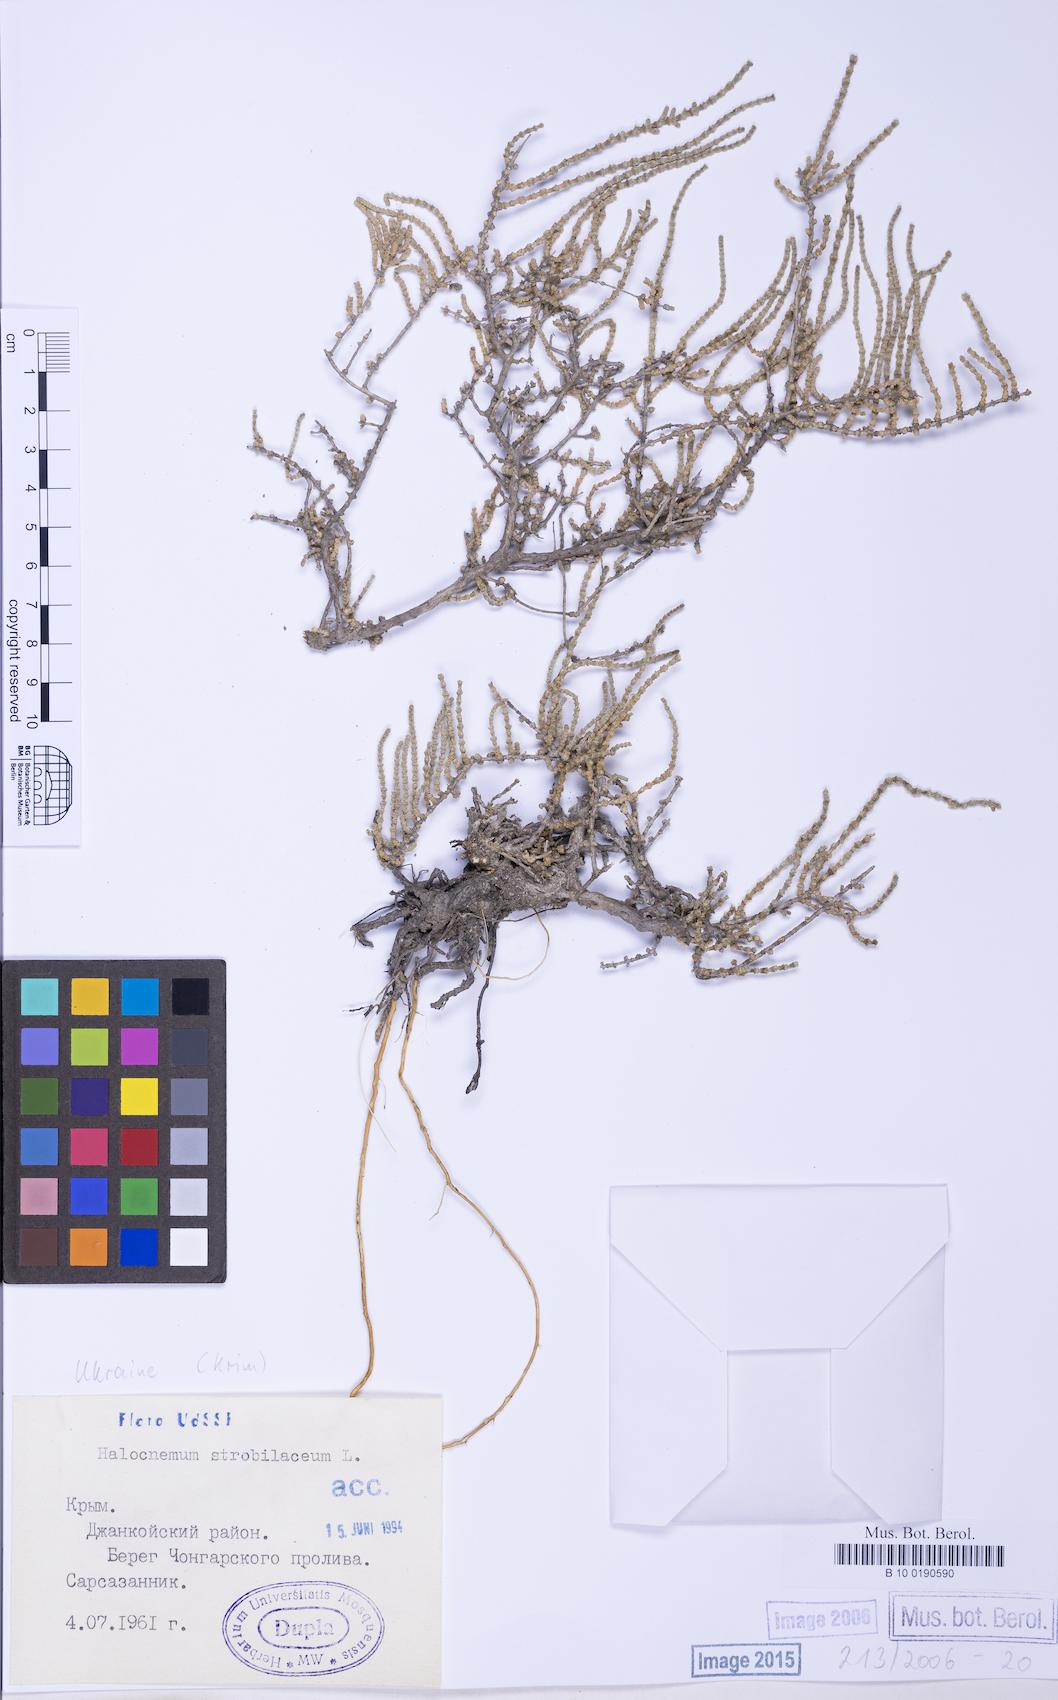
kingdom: Plantae
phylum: Tracheophyta
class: Magnoliopsida
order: Caryophyllales
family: Amaranthaceae
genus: Halocnemum
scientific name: Halocnemum strobilaceum
